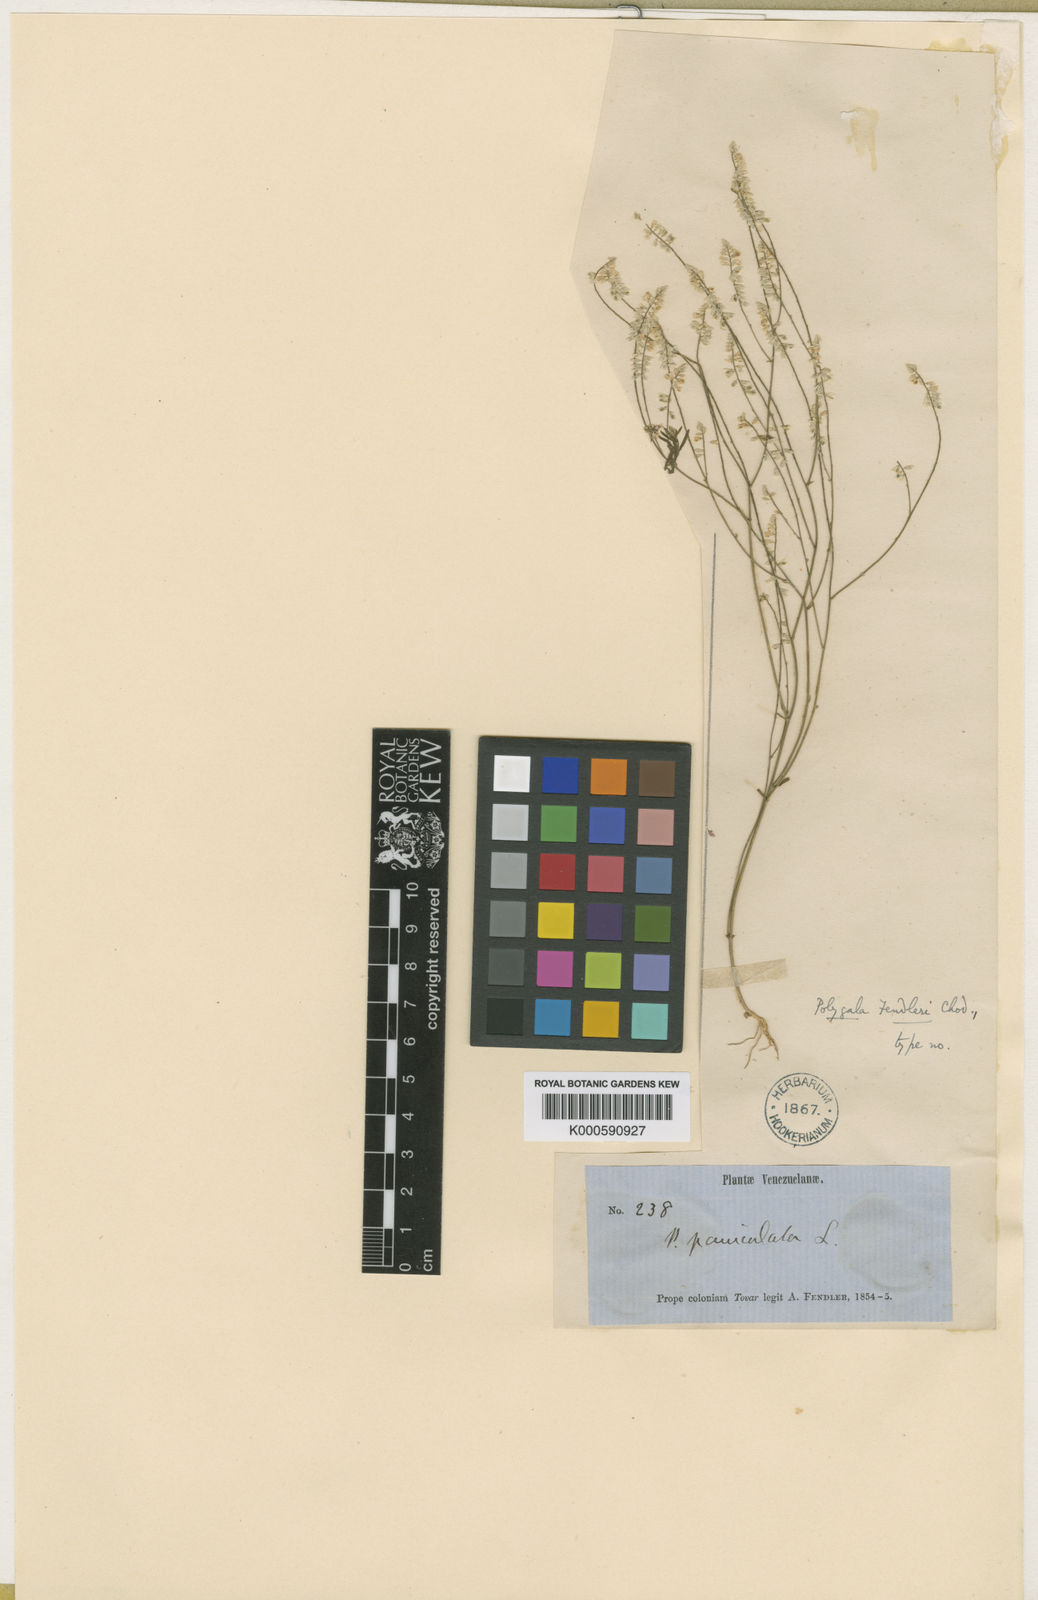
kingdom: Plantae
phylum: Tracheophyta
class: Magnoliopsida
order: Fabales
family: Polygalaceae
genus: Polygala
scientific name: Polygala fendleri
